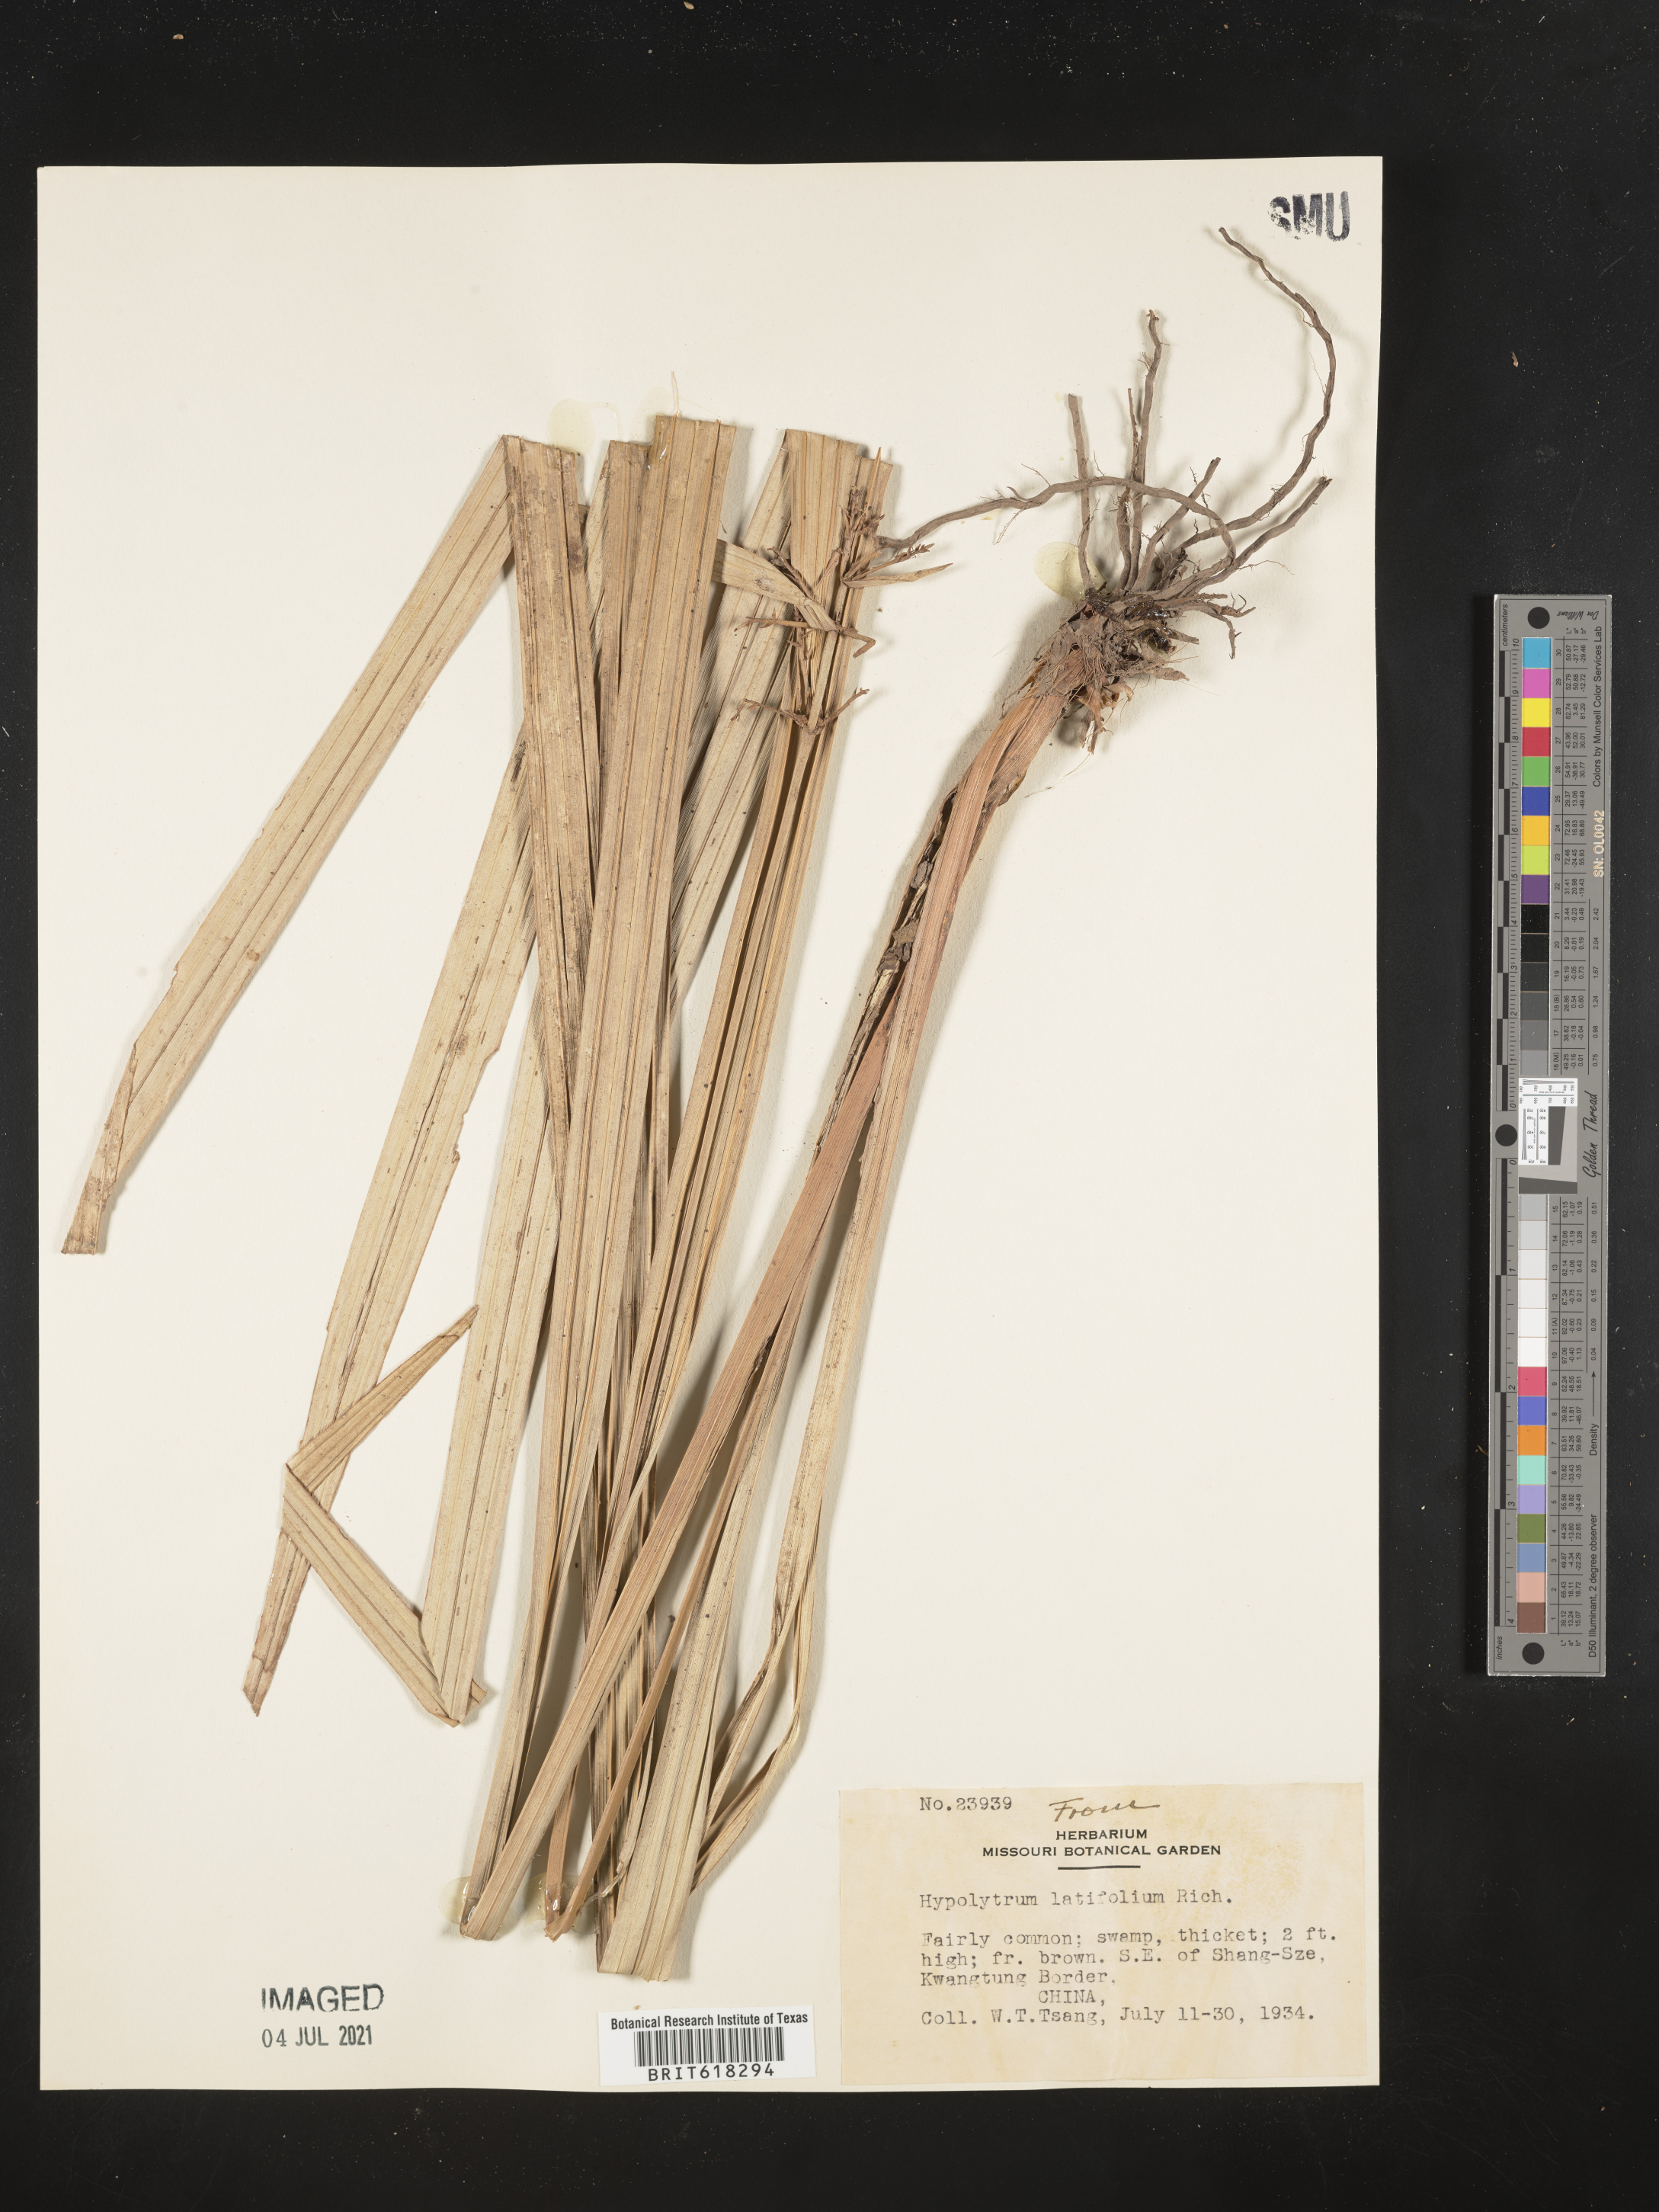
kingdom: Plantae
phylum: Tracheophyta
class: Liliopsida
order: Poales
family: Cyperaceae
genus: Hypolytrum
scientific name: Hypolytrum latifolium
